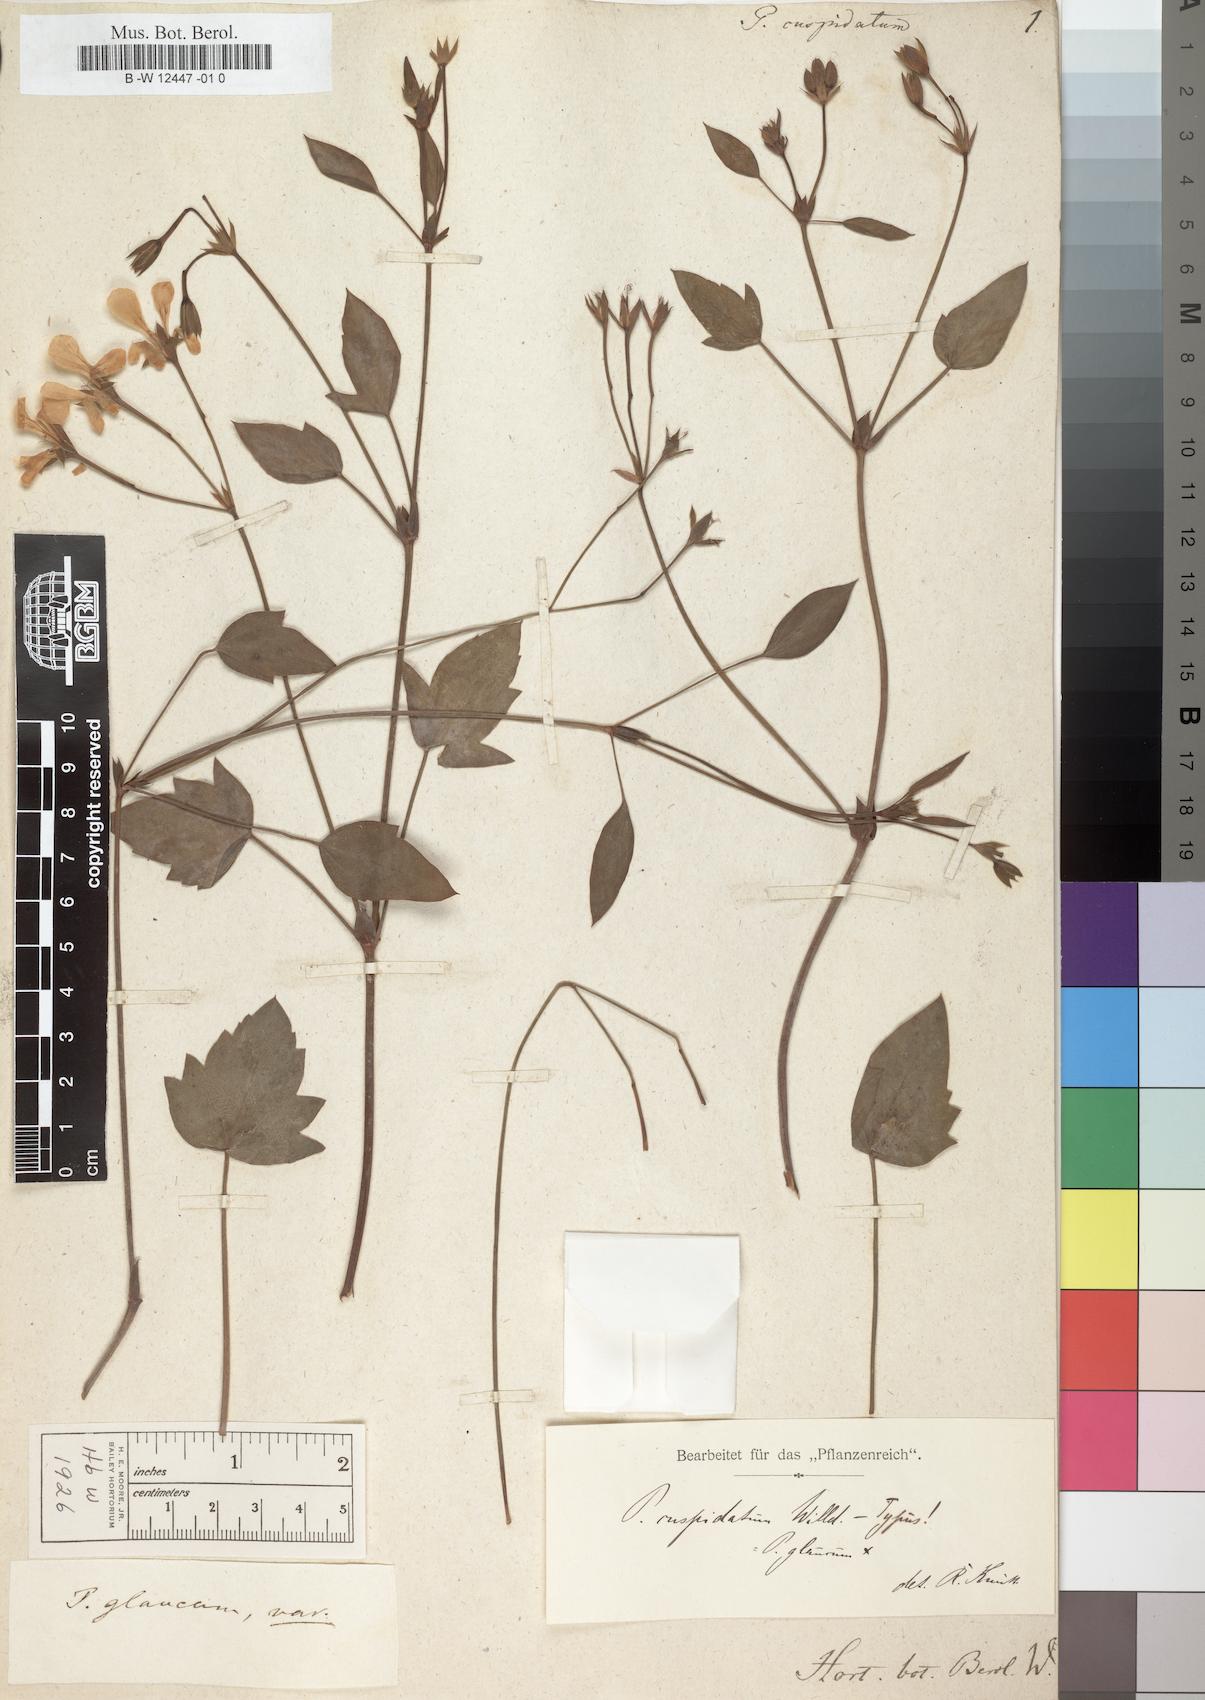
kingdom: Plantae
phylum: Tracheophyta
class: Magnoliopsida
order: Geraniales
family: Geraniaceae
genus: Pelargonium
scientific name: Pelargonium lanceolatum
